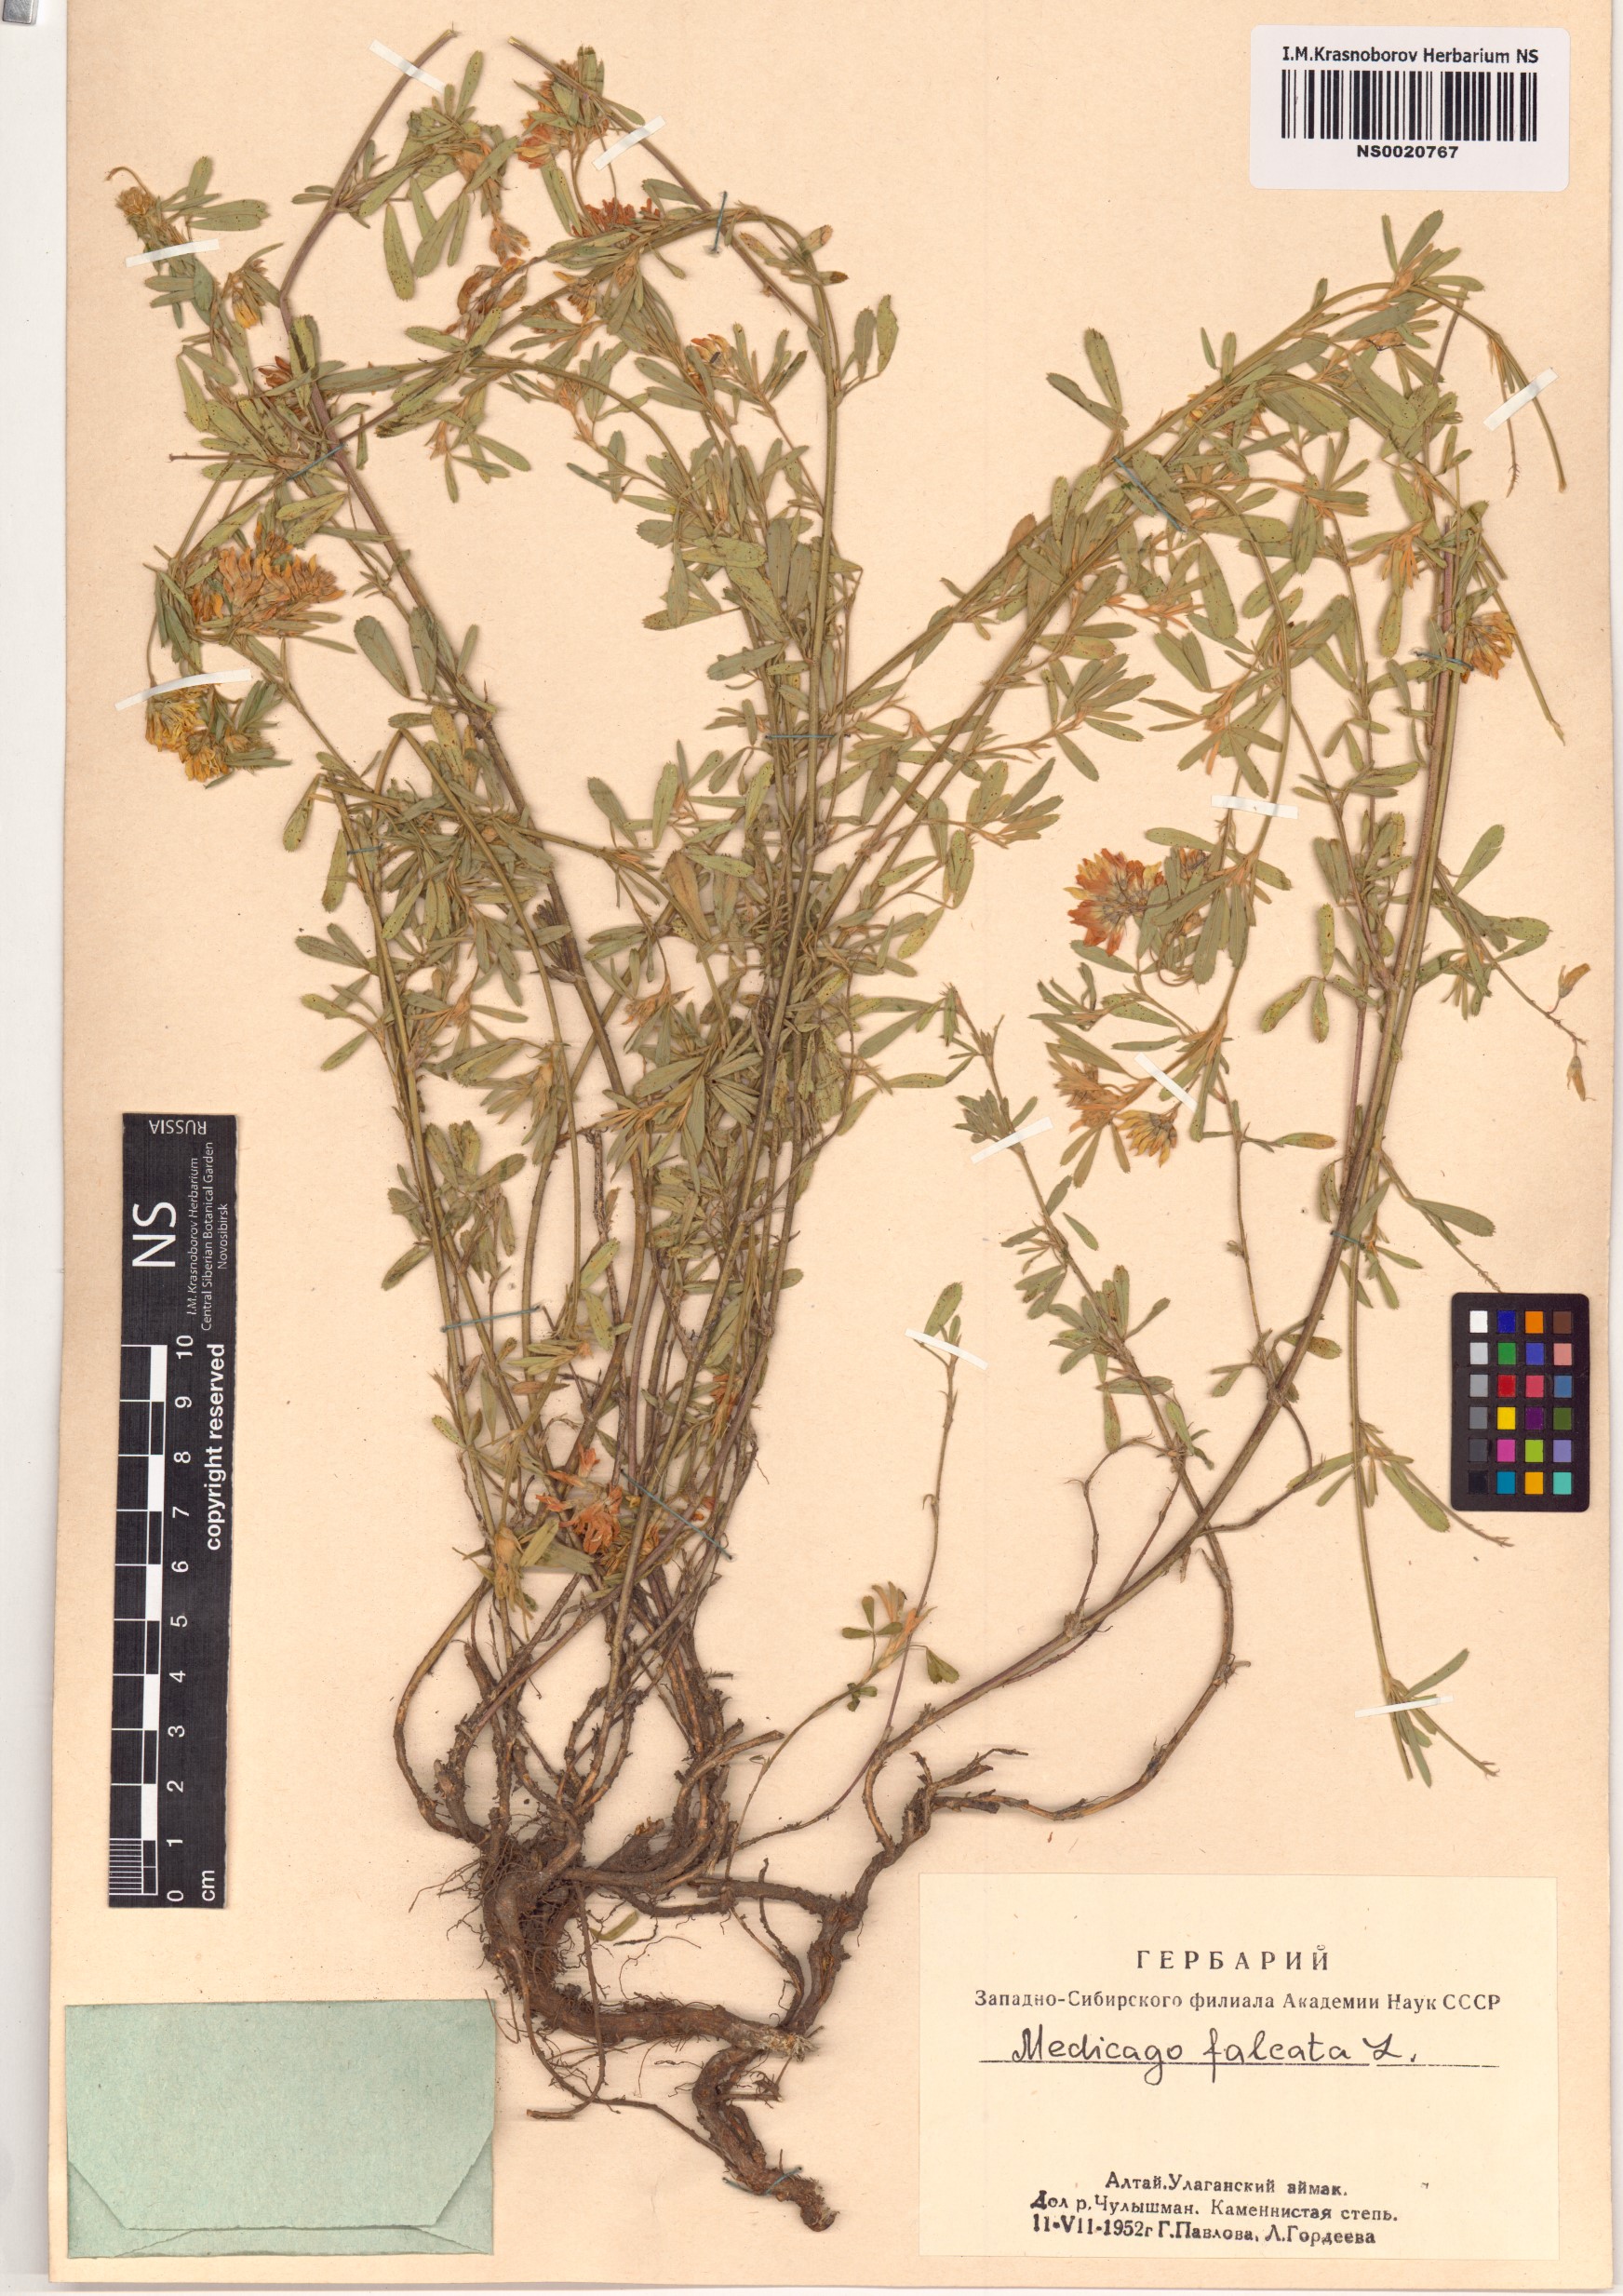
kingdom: Plantae
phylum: Tracheophyta
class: Magnoliopsida
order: Fabales
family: Fabaceae
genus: Medicago
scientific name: Medicago falcata
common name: Sickle medick
